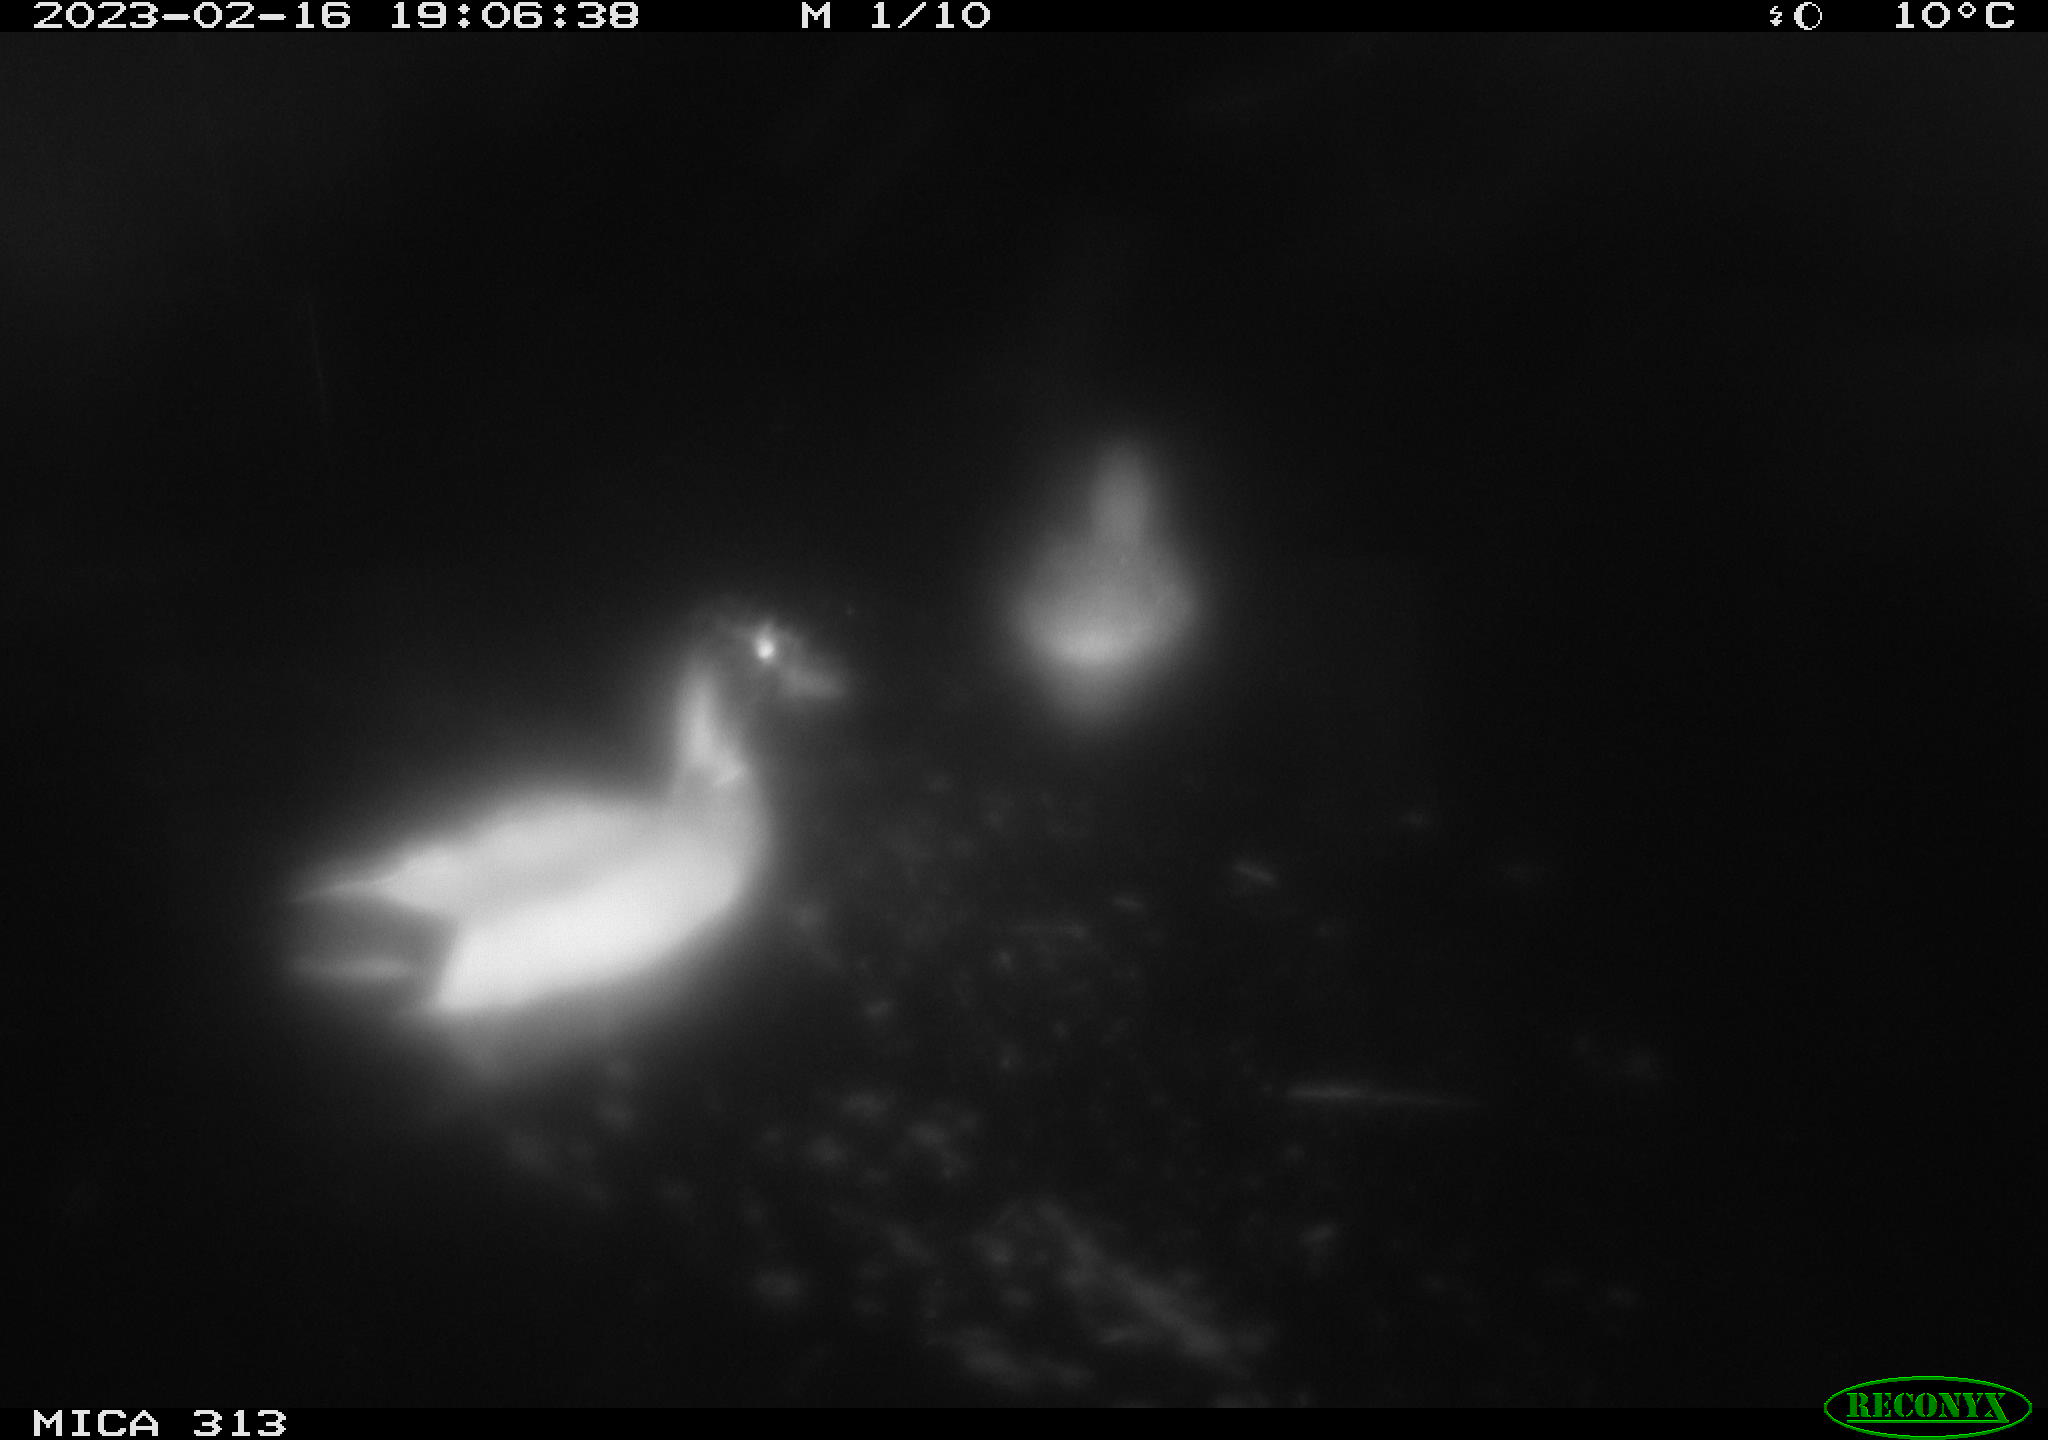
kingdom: Animalia
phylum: Chordata
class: Aves
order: Anseriformes
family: Anatidae
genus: Anas
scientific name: Anas
